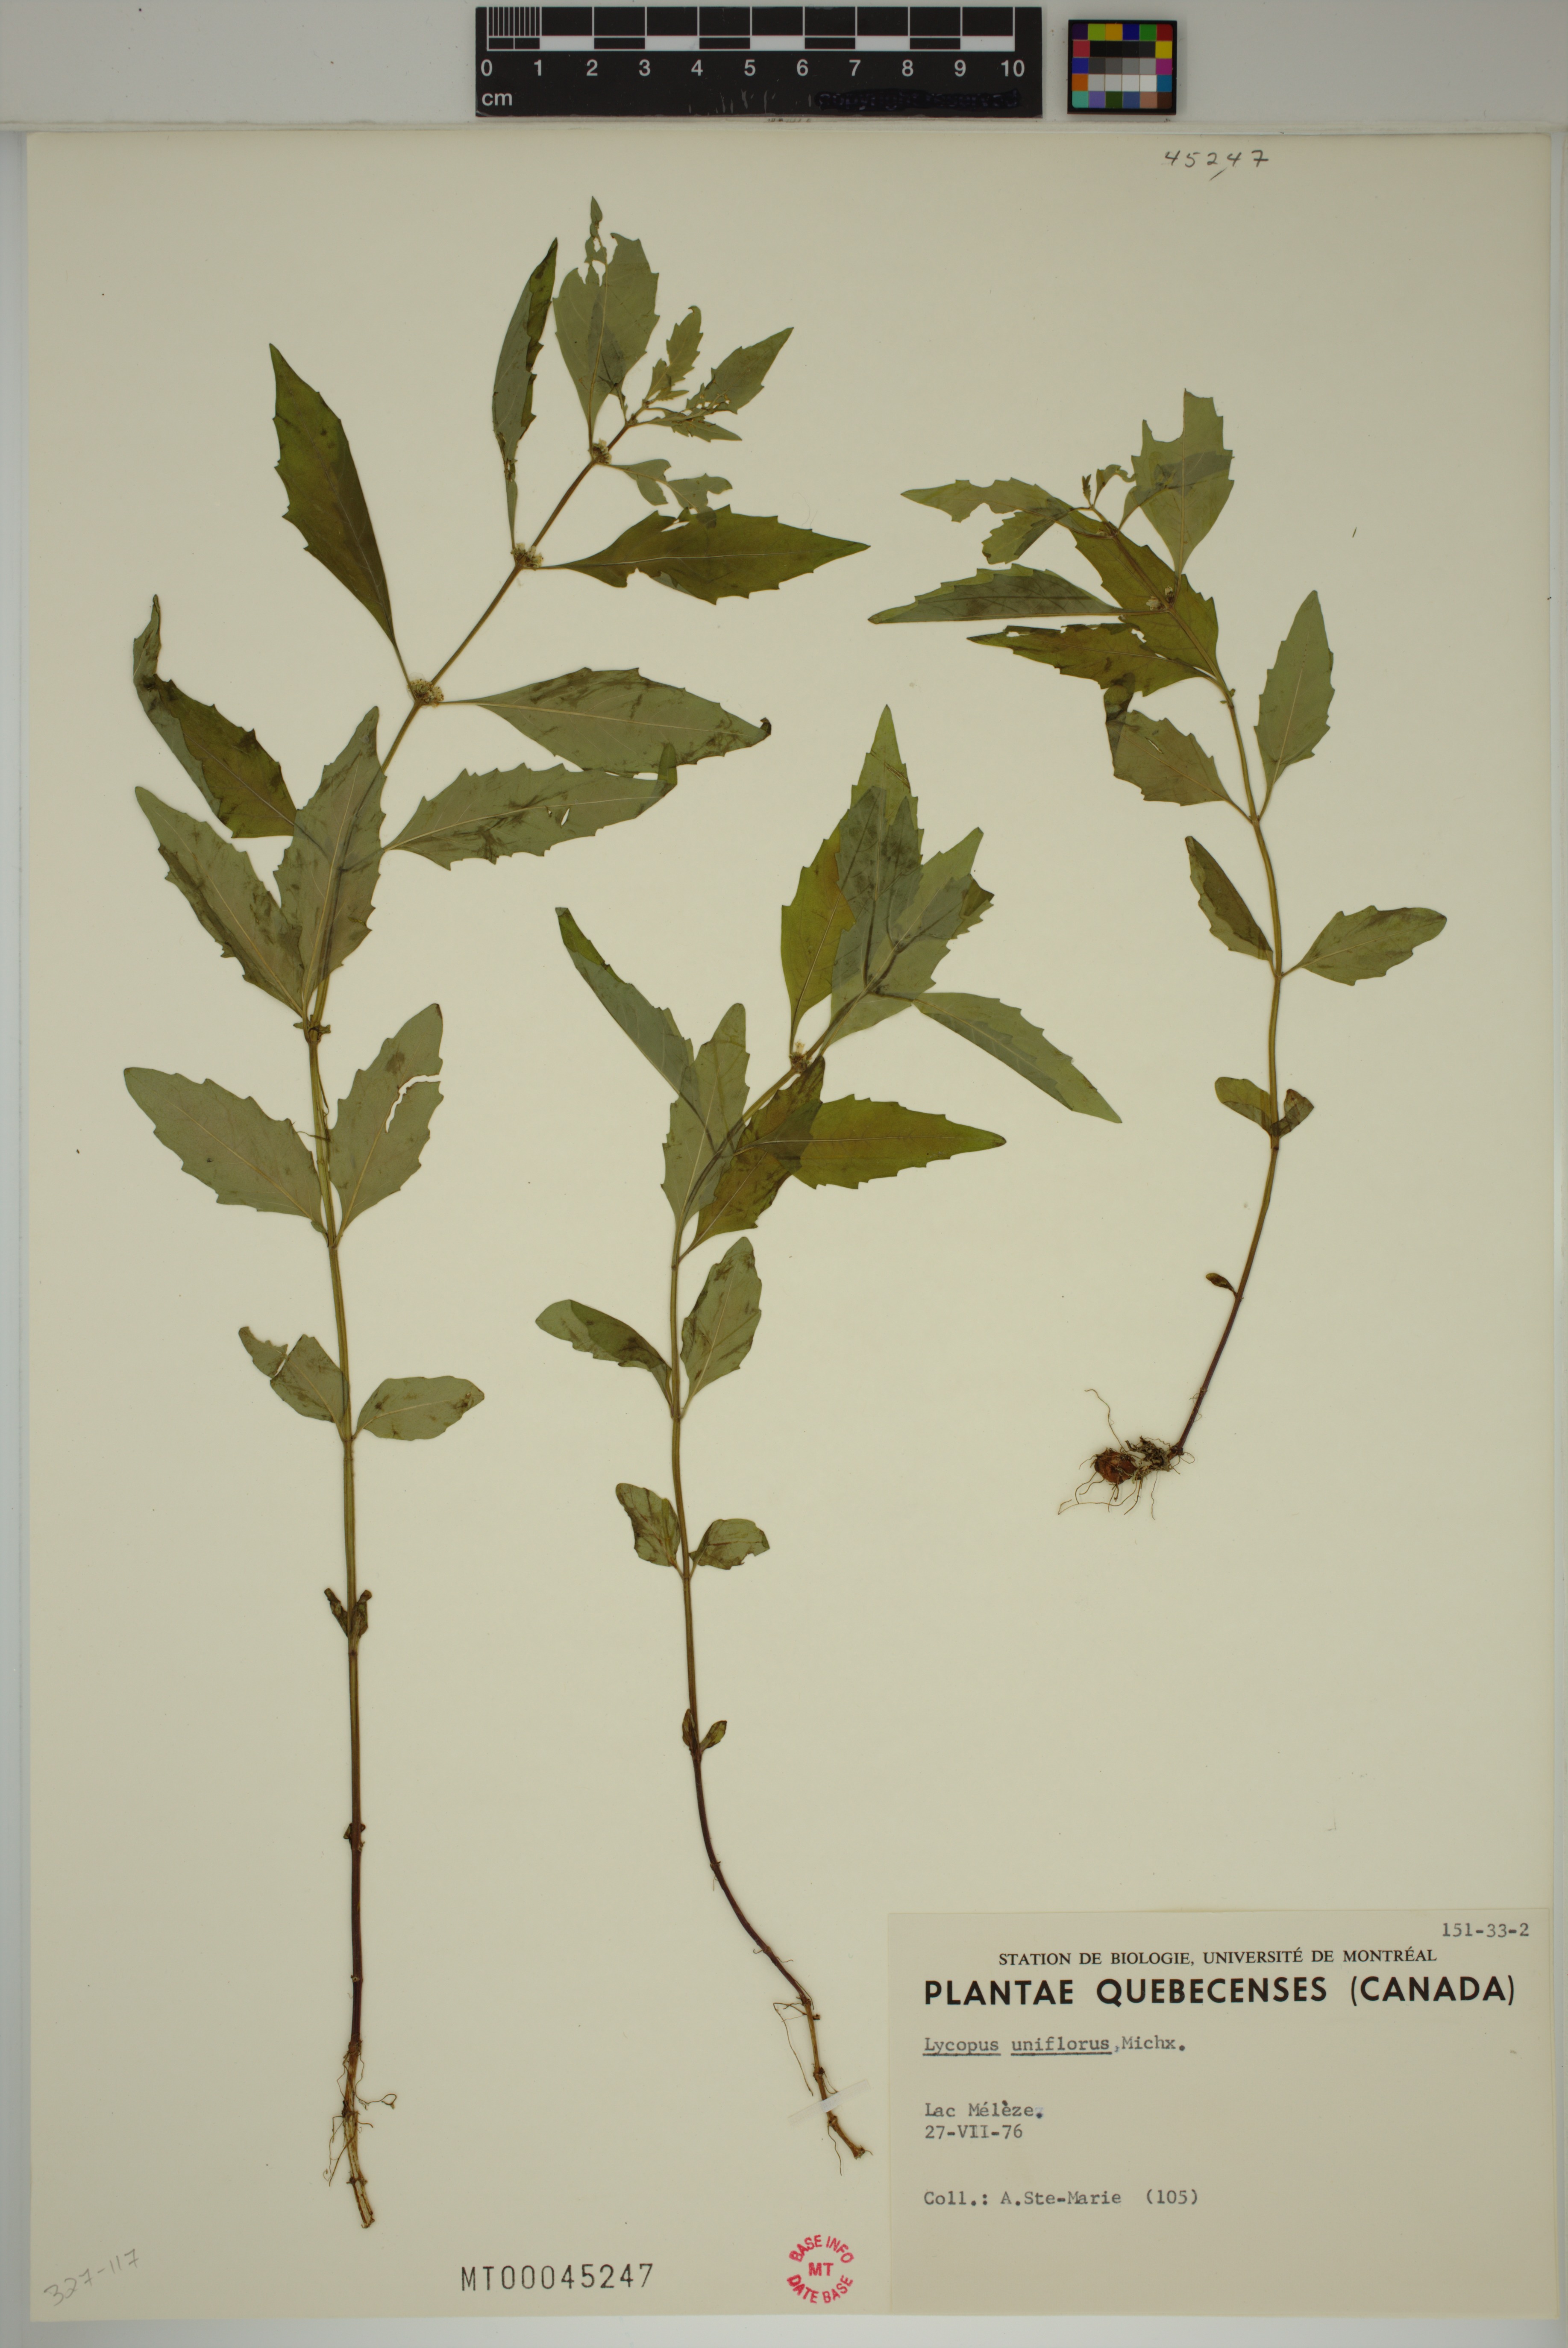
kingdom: Plantae
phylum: Tracheophyta
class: Magnoliopsida
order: Lamiales
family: Lamiaceae
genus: Lycopus
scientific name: Lycopus uniflorus
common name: Northern bugleweed
